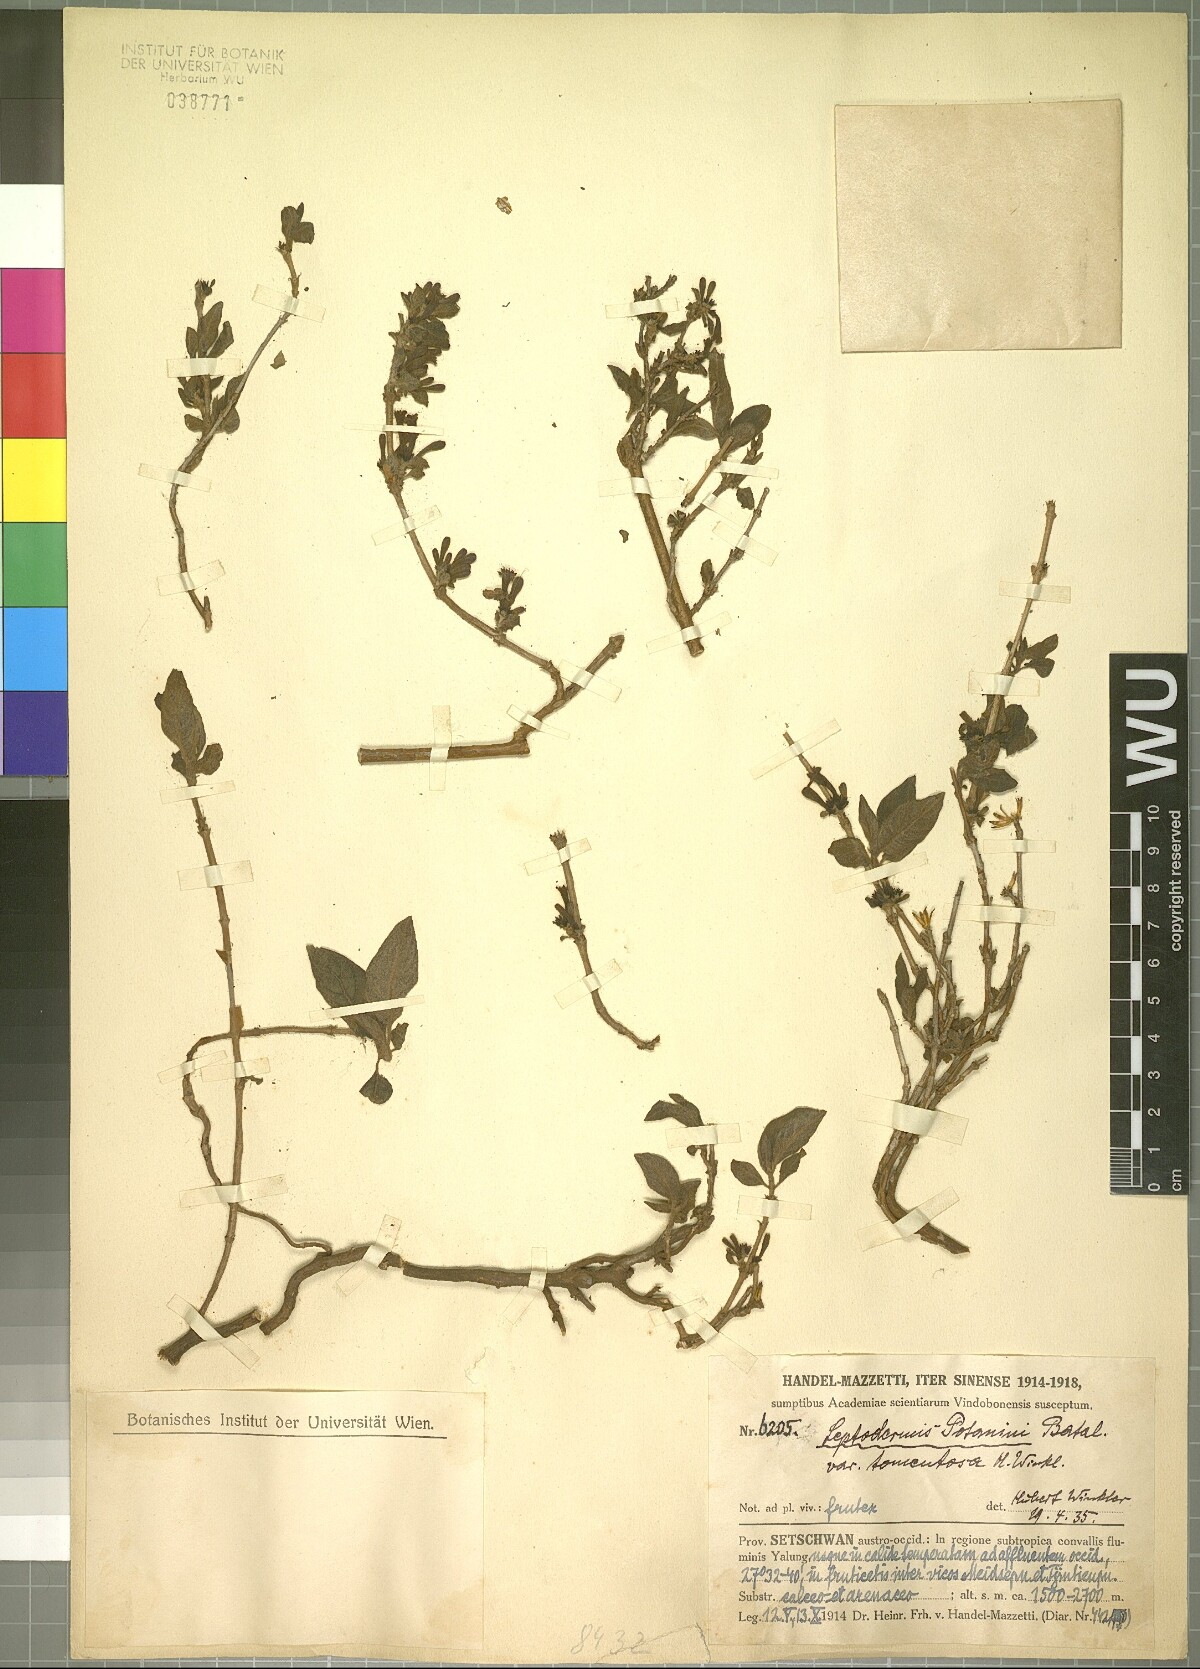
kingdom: Plantae
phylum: Tracheophyta
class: Magnoliopsida
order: Gentianales
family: Rubiaceae
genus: Leptodermis
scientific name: Leptodermis potaninii
